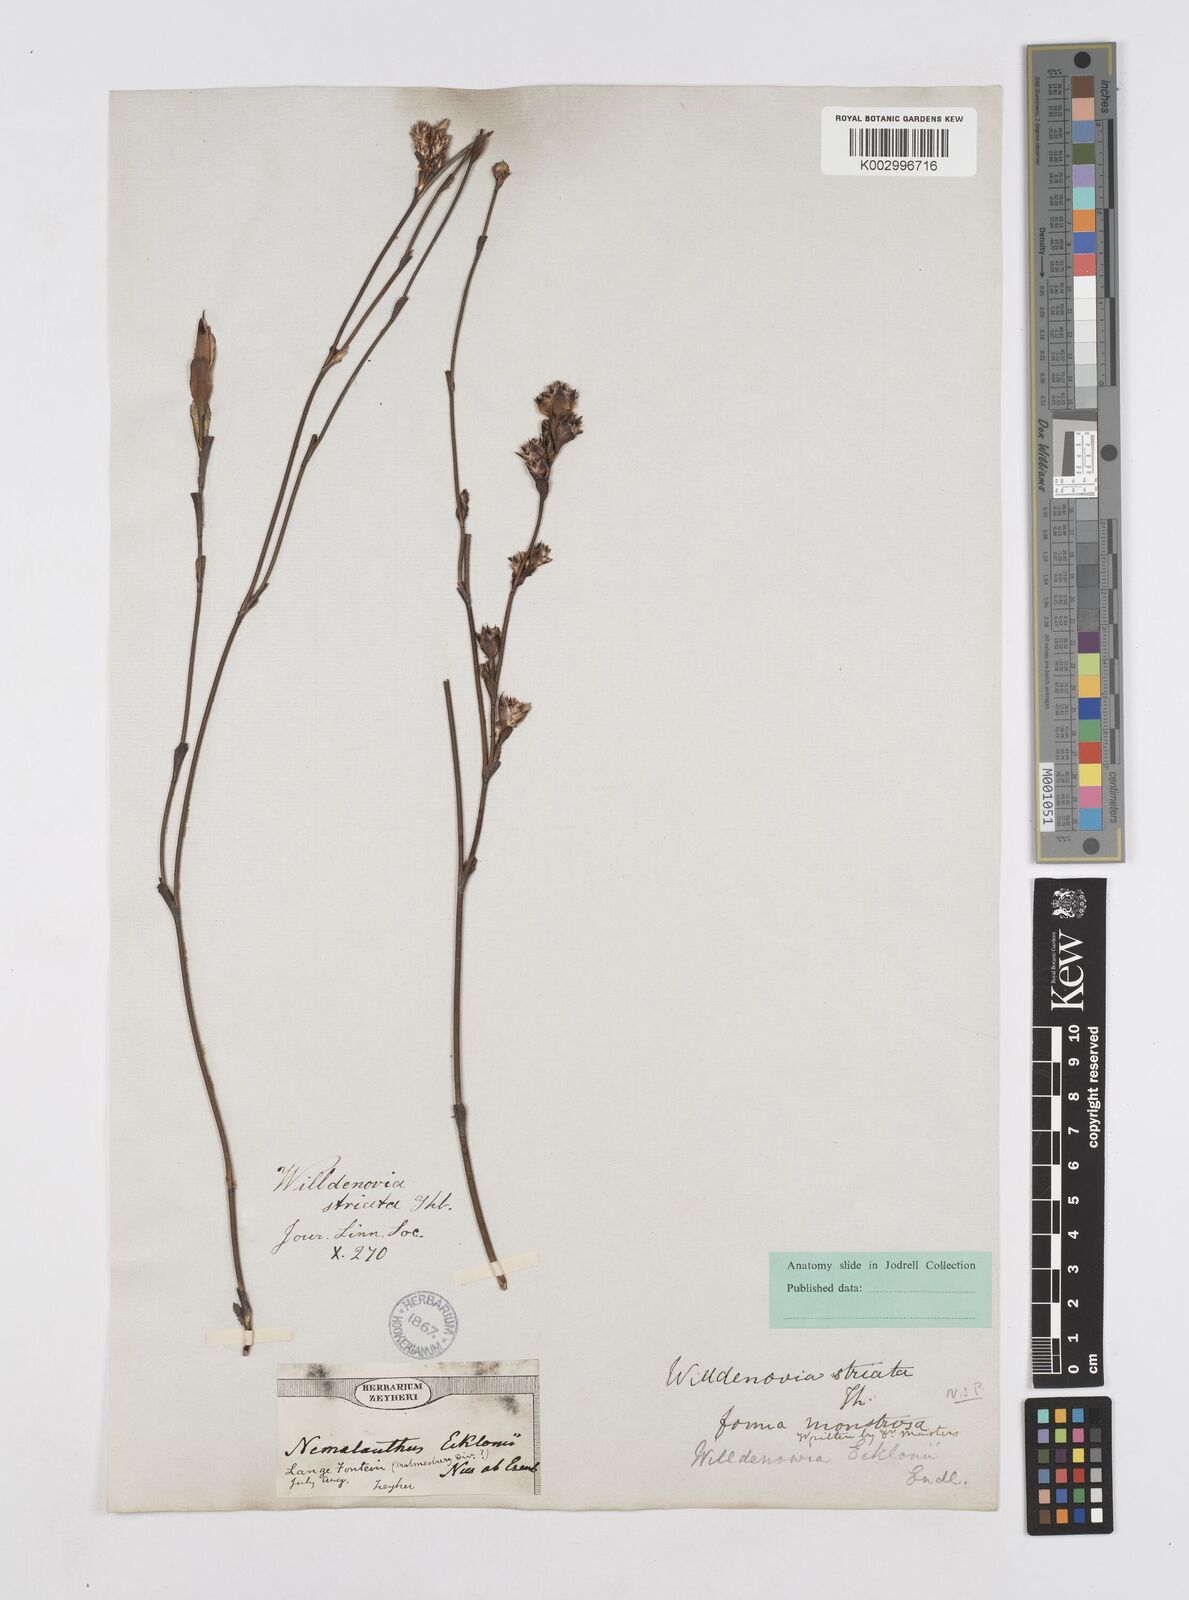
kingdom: Plantae
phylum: Tracheophyta
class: Liliopsida
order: Poales
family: Restionaceae
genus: Willdenowia
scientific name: Willdenowia incurvata
